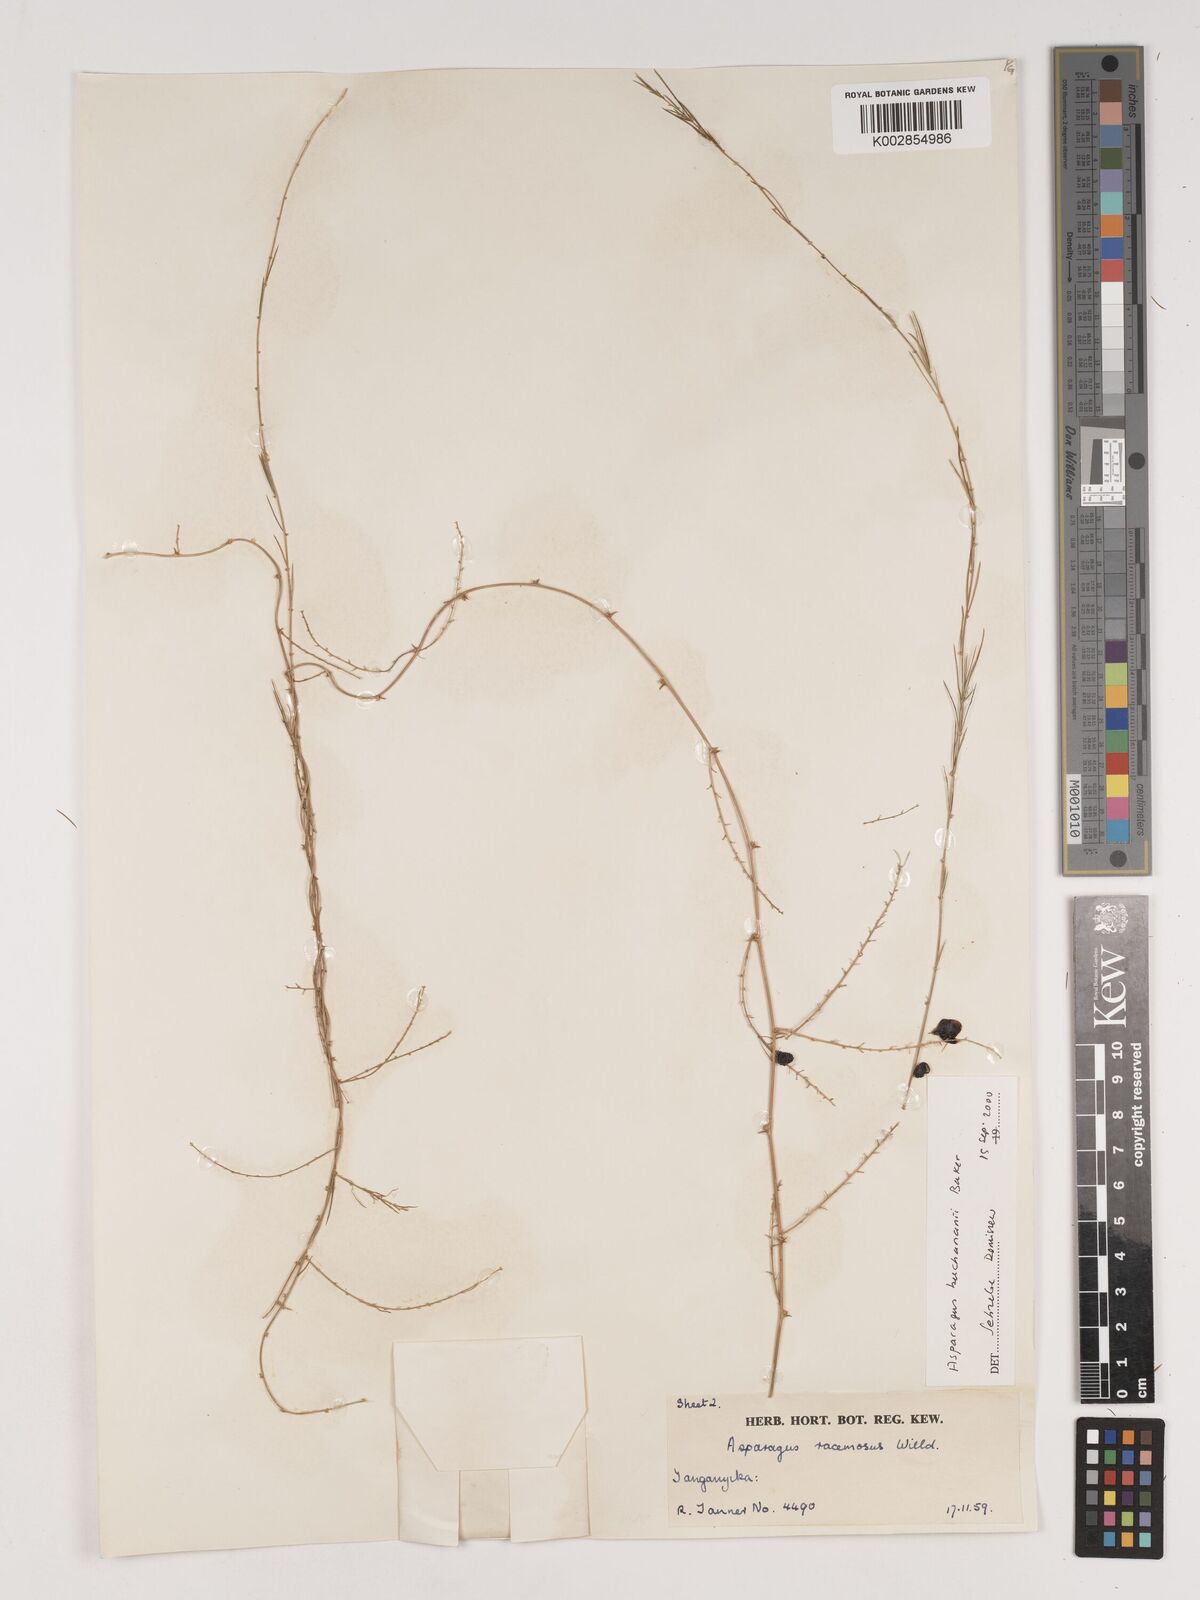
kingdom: Plantae
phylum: Tracheophyta
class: Liliopsida
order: Asparagales
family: Asparagaceae
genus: Asparagus
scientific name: Asparagus buchananii
